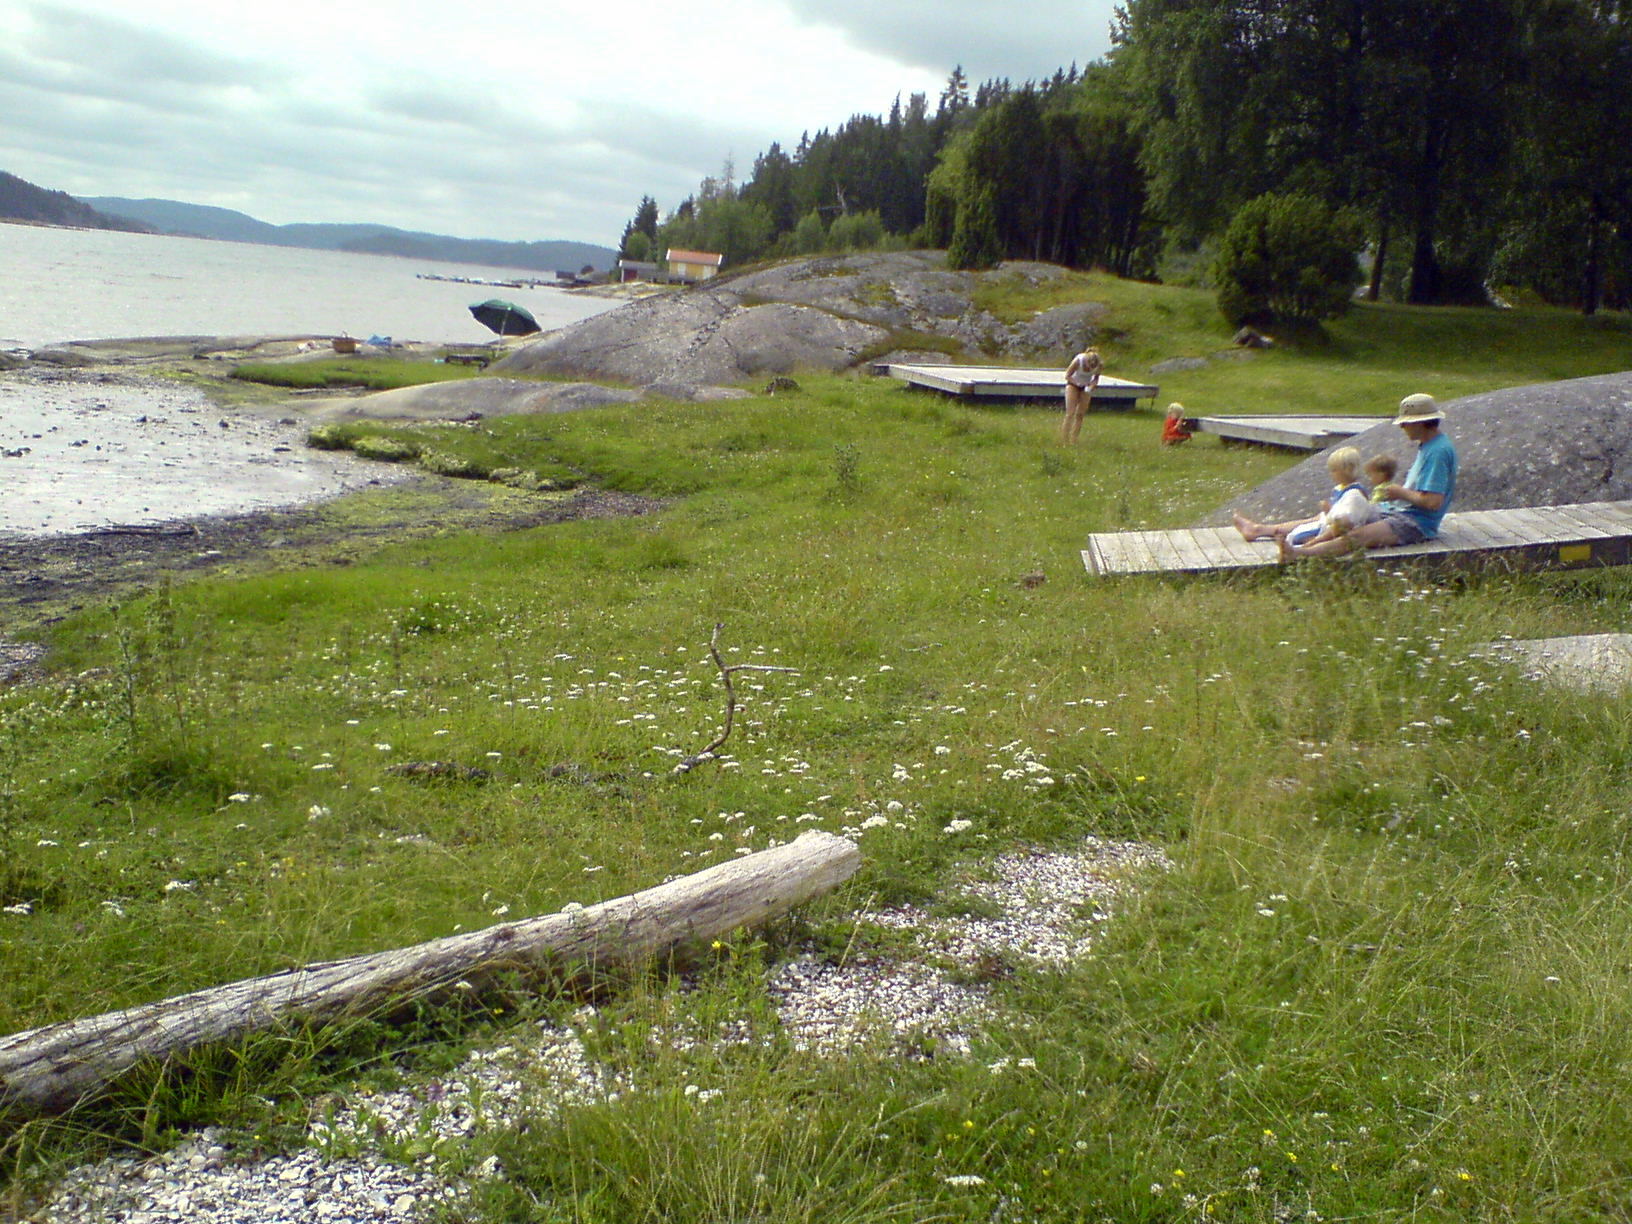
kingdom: Plantae
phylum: Tracheophyta
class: Magnoliopsida
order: Apiales
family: Apiaceae
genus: Carum
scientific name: Carum carvi
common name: Caraway
